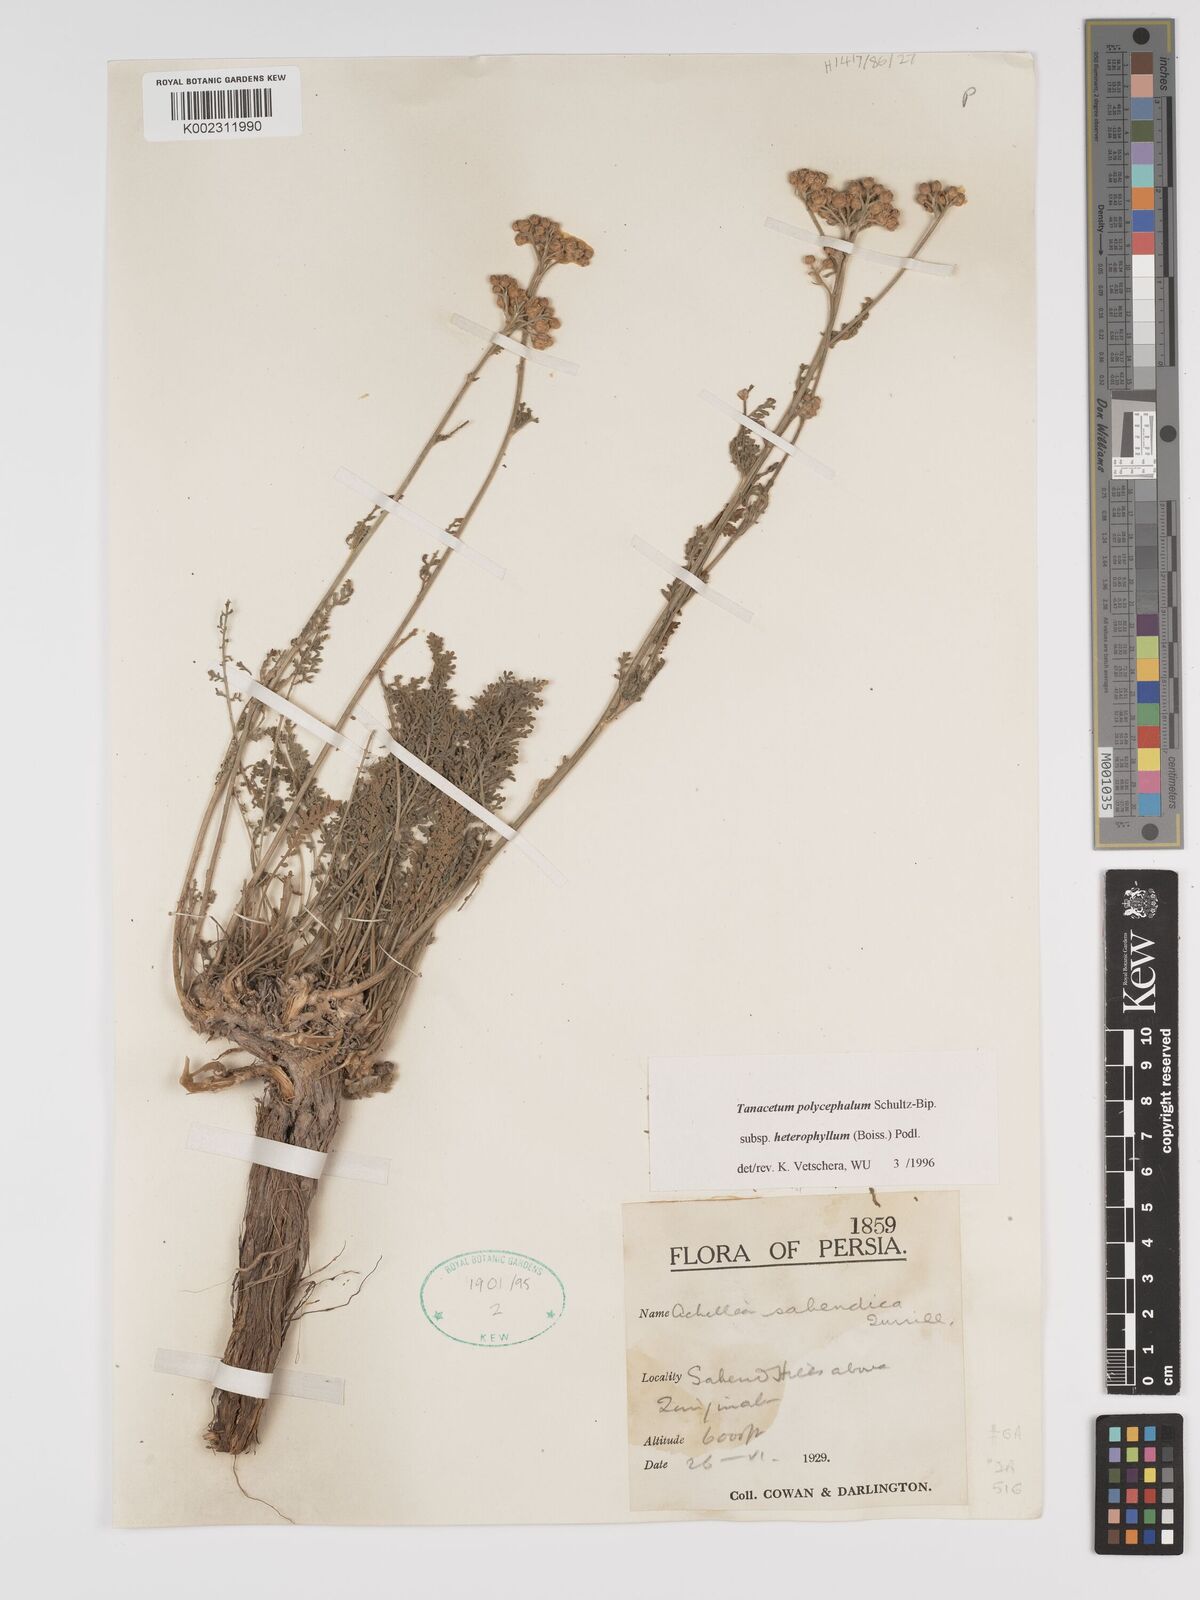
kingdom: Plantae
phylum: Tracheophyta
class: Magnoliopsida
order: Asterales
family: Asteraceae
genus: Tanacetum
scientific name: Tanacetum polycephalum
